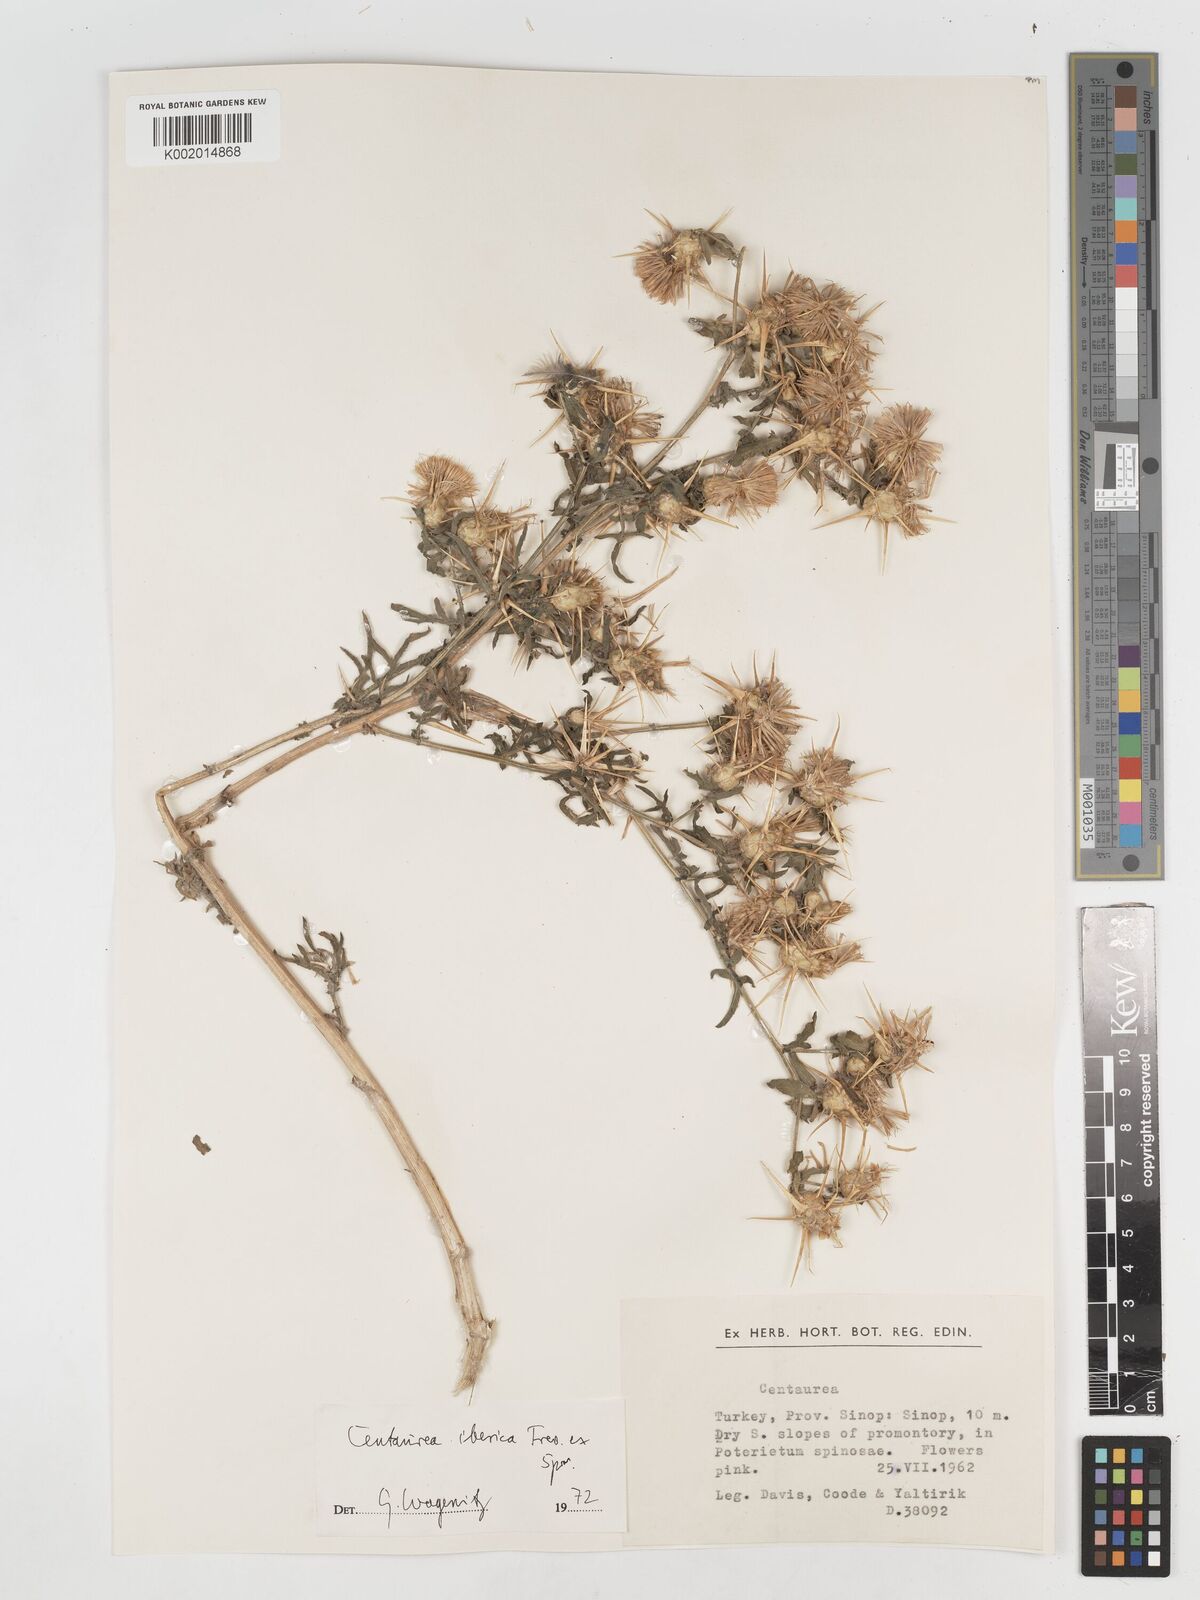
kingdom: Plantae
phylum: Tracheophyta
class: Magnoliopsida
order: Asterales
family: Asteraceae
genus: Centaurea
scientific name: Centaurea iberica
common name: Iberian knapweed
